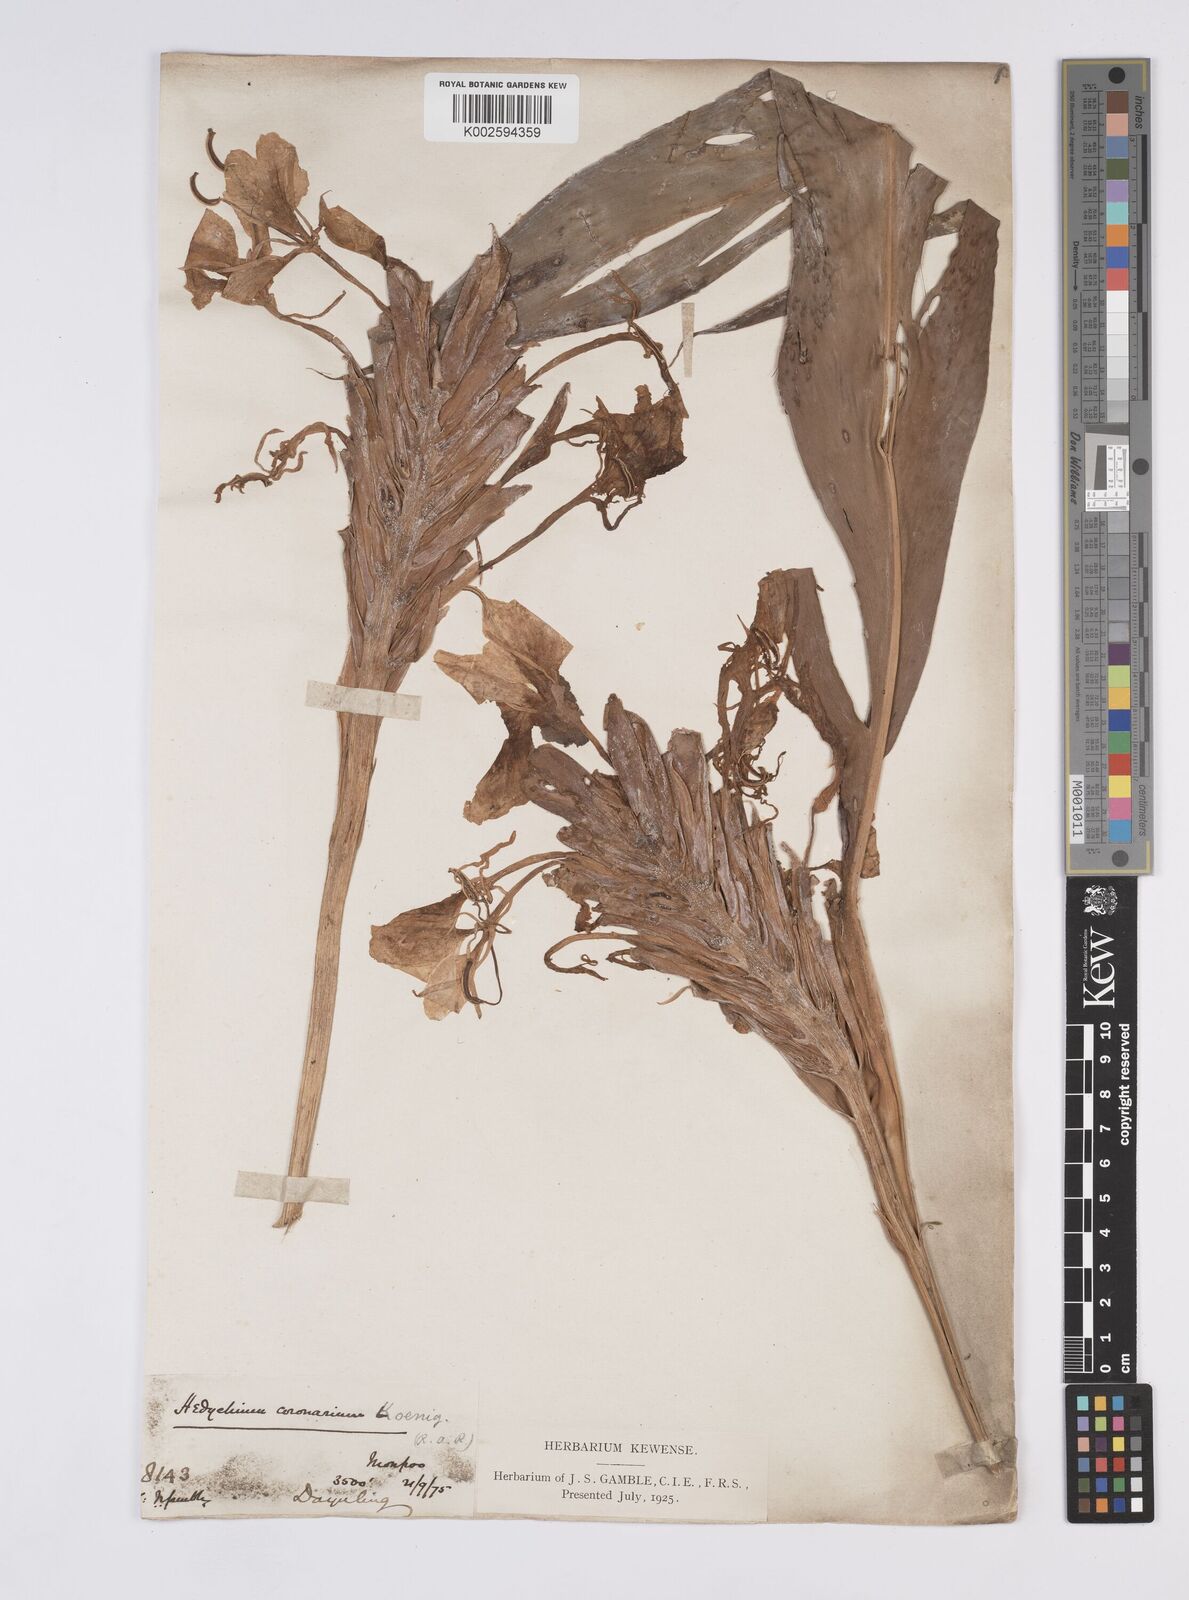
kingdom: Plantae
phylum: Tracheophyta
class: Liliopsida
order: Zingiberales
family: Zingiberaceae
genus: Hedychium
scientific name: Hedychium venustum
